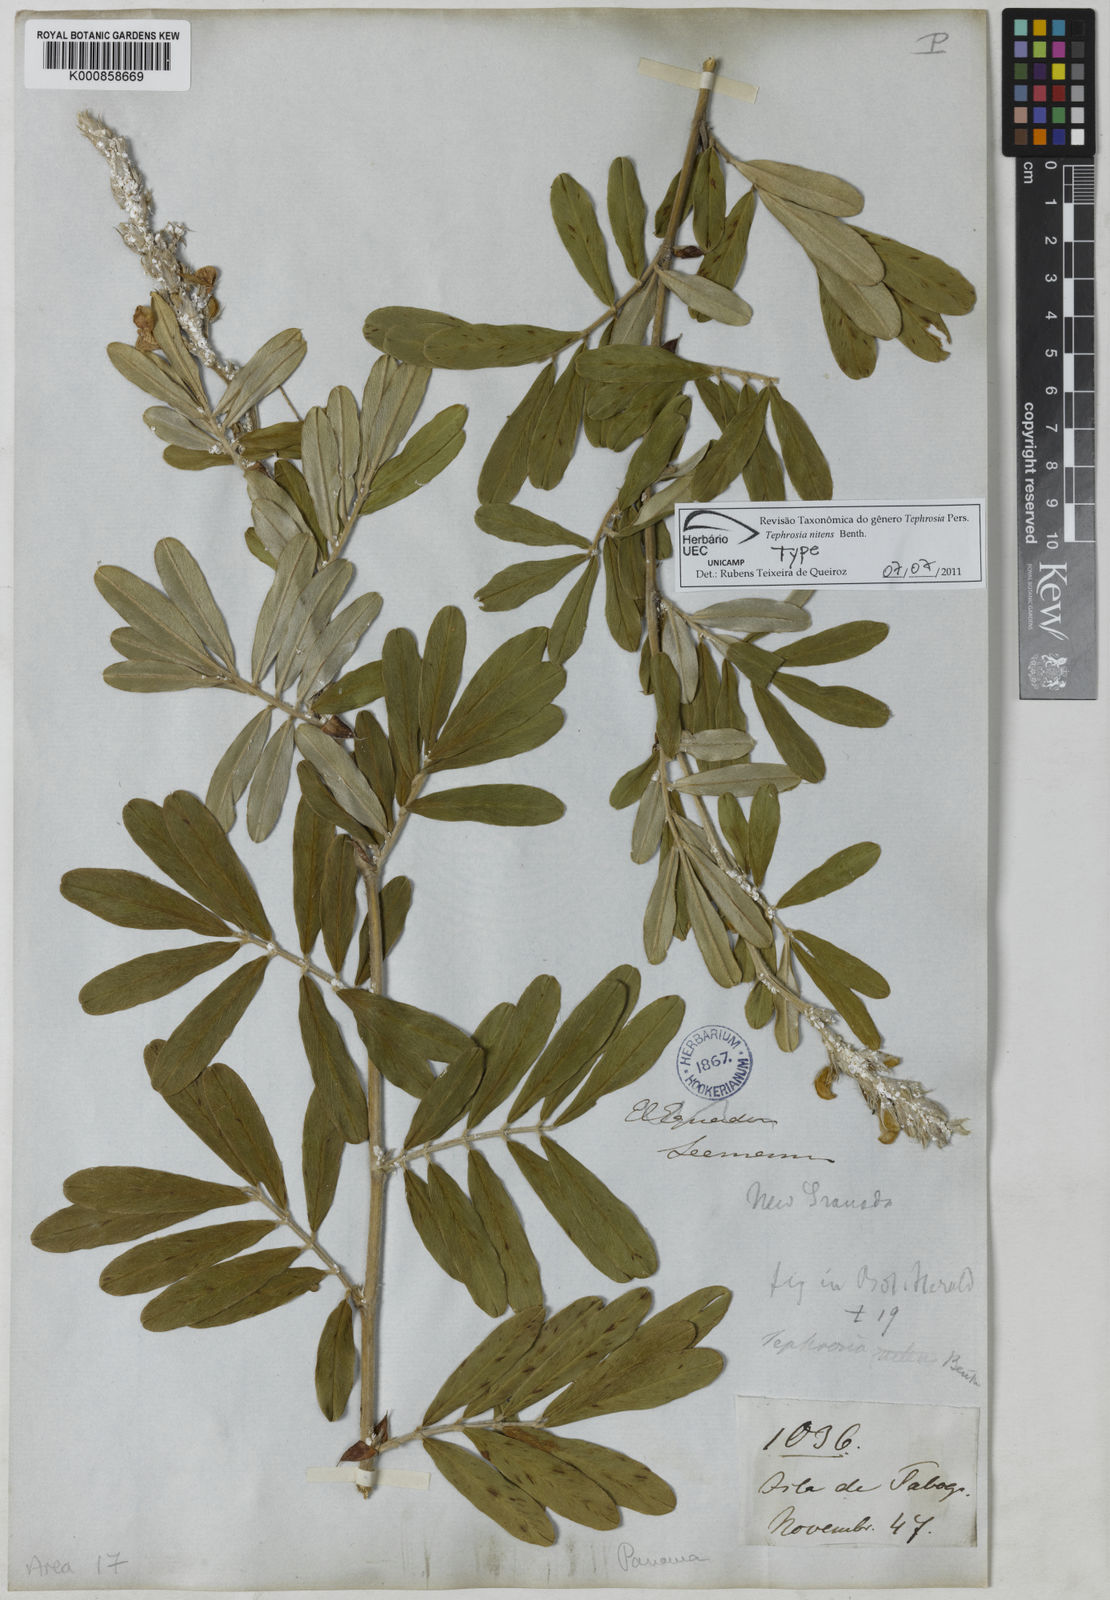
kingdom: Plantae
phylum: Tracheophyta
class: Magnoliopsida
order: Fabales
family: Fabaceae
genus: Tephrosia
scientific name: Tephrosia nitens
